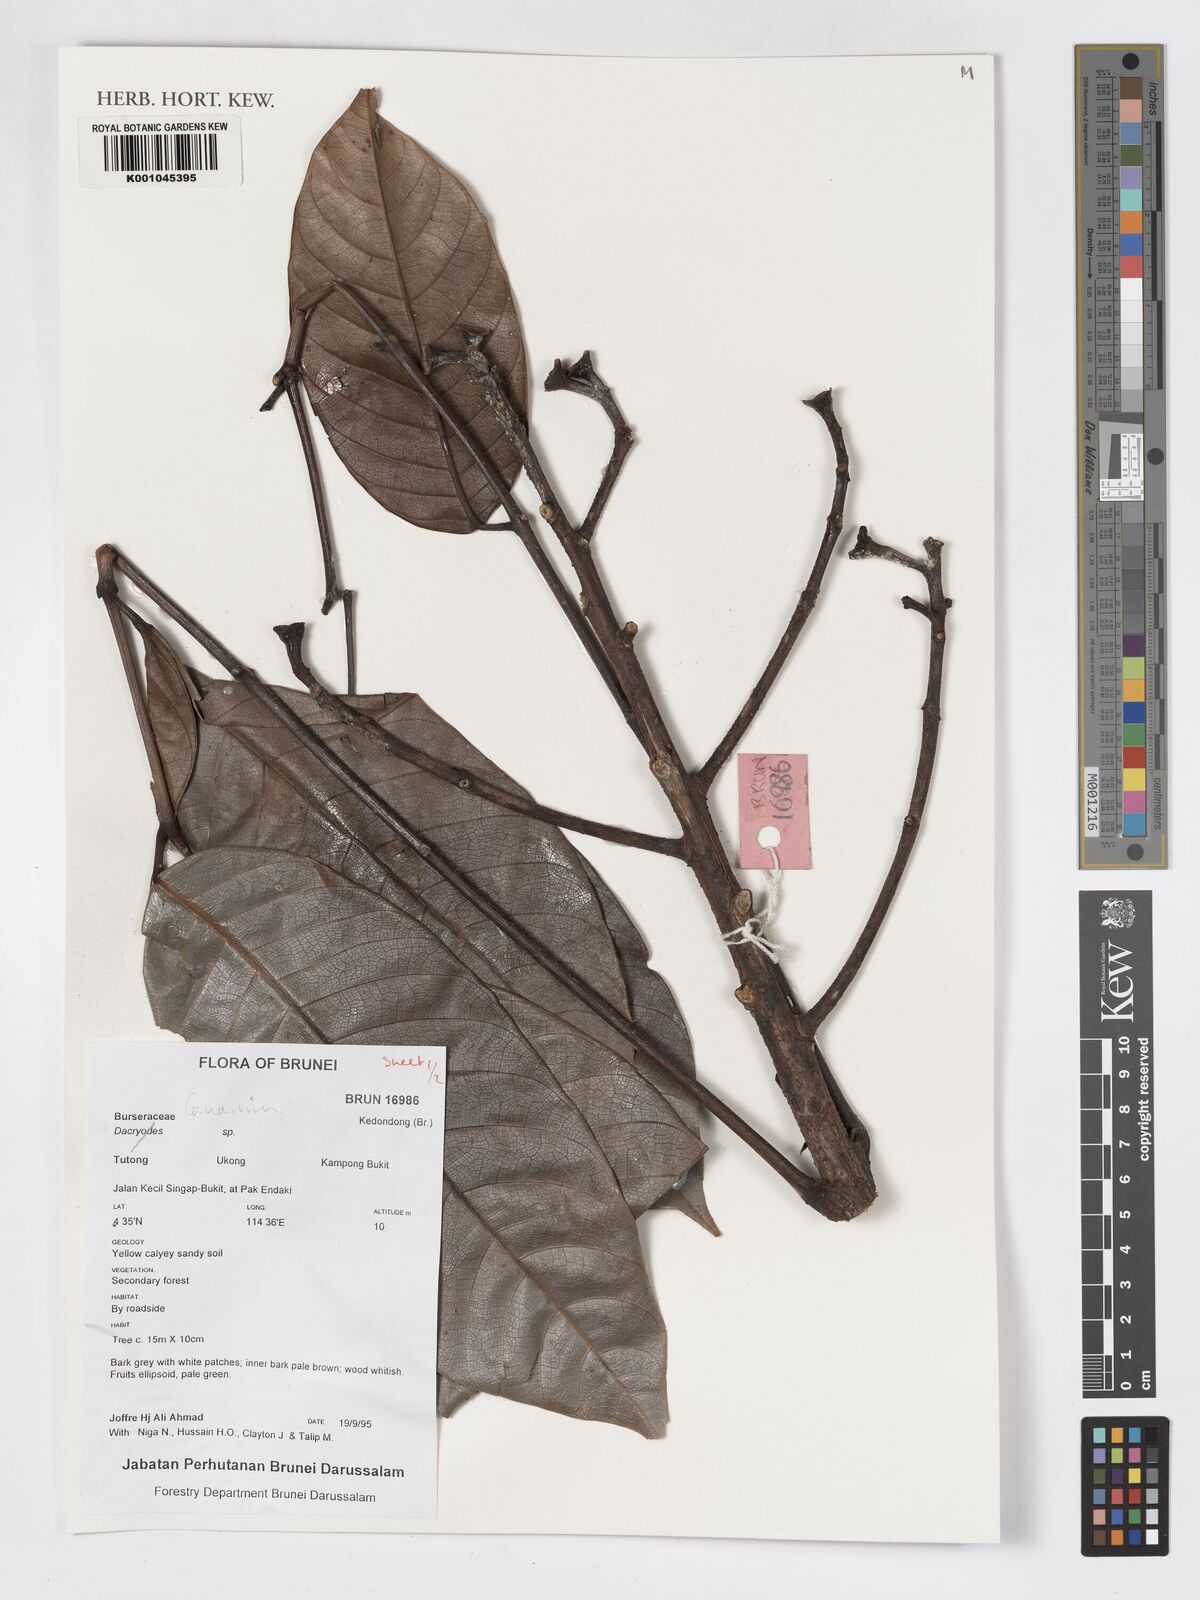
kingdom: Plantae
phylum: Tracheophyta
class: Magnoliopsida
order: Sapindales
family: Burseraceae
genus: Canarium
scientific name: Canarium
